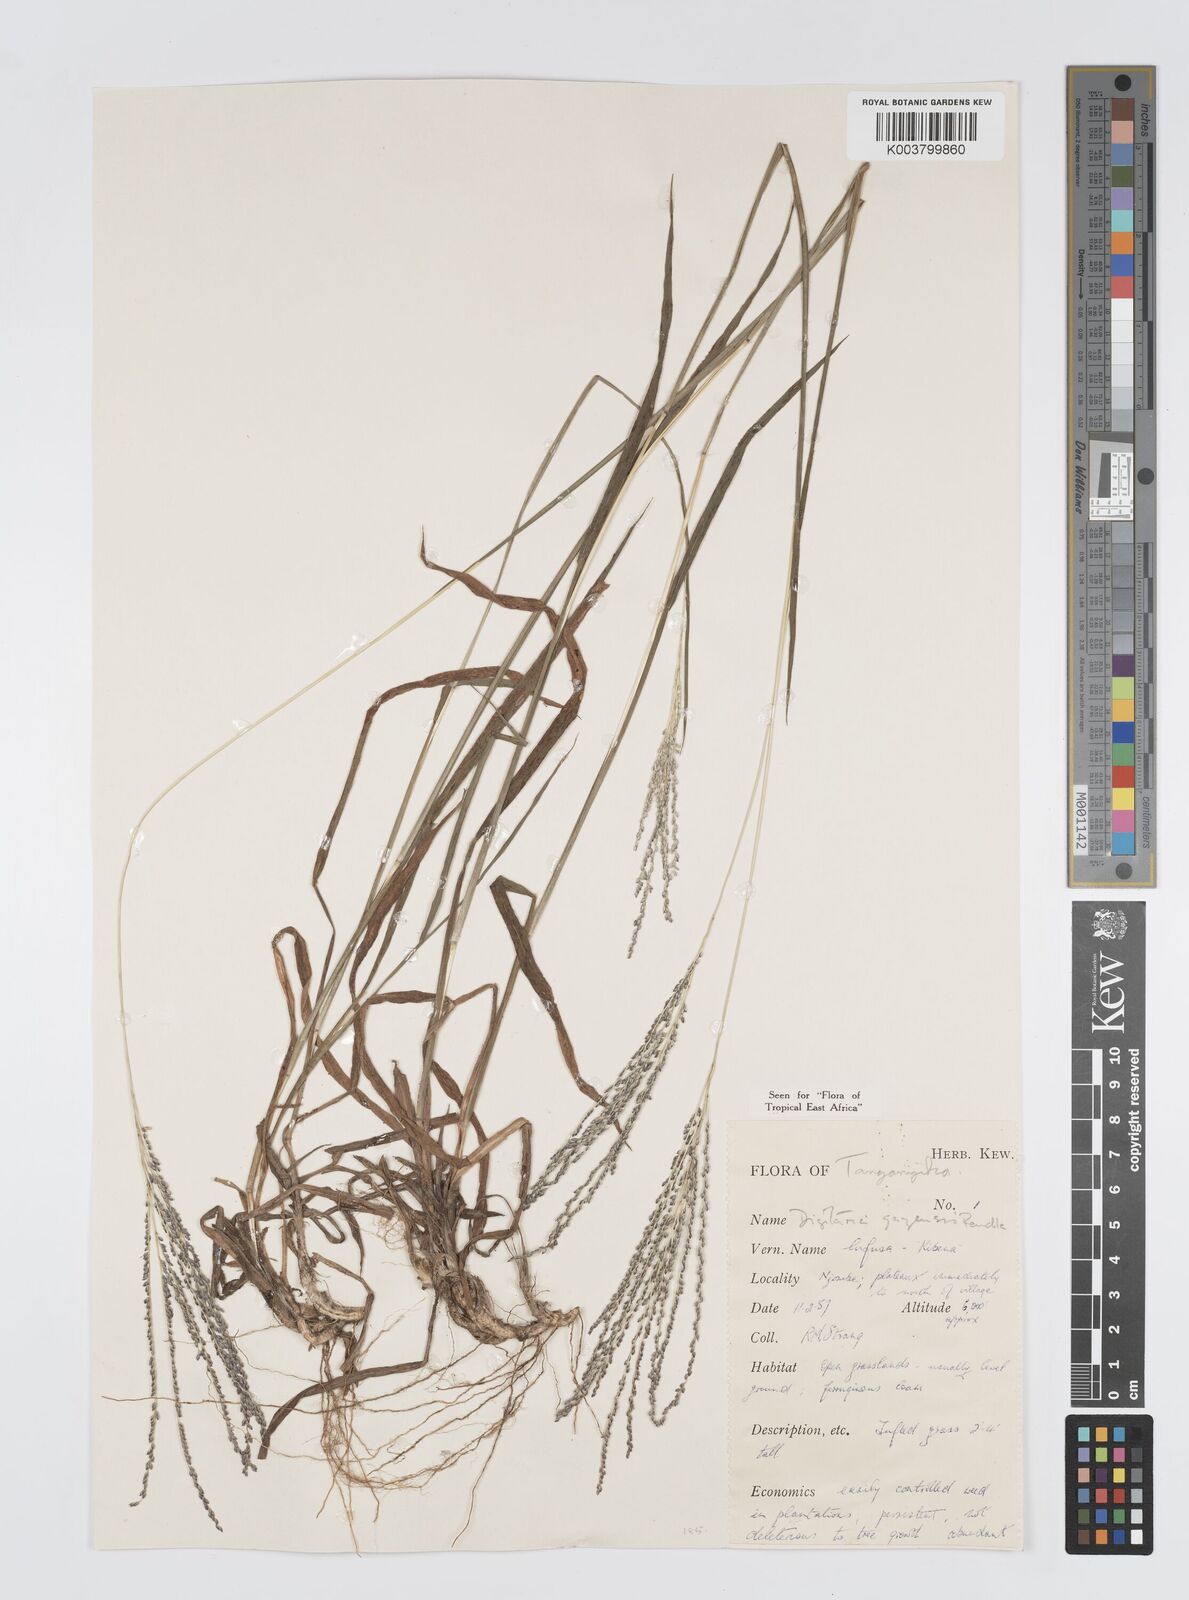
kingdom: Plantae
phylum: Tracheophyta
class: Liliopsida
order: Poales
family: Poaceae
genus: Digitaria
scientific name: Digitaria gazensis
